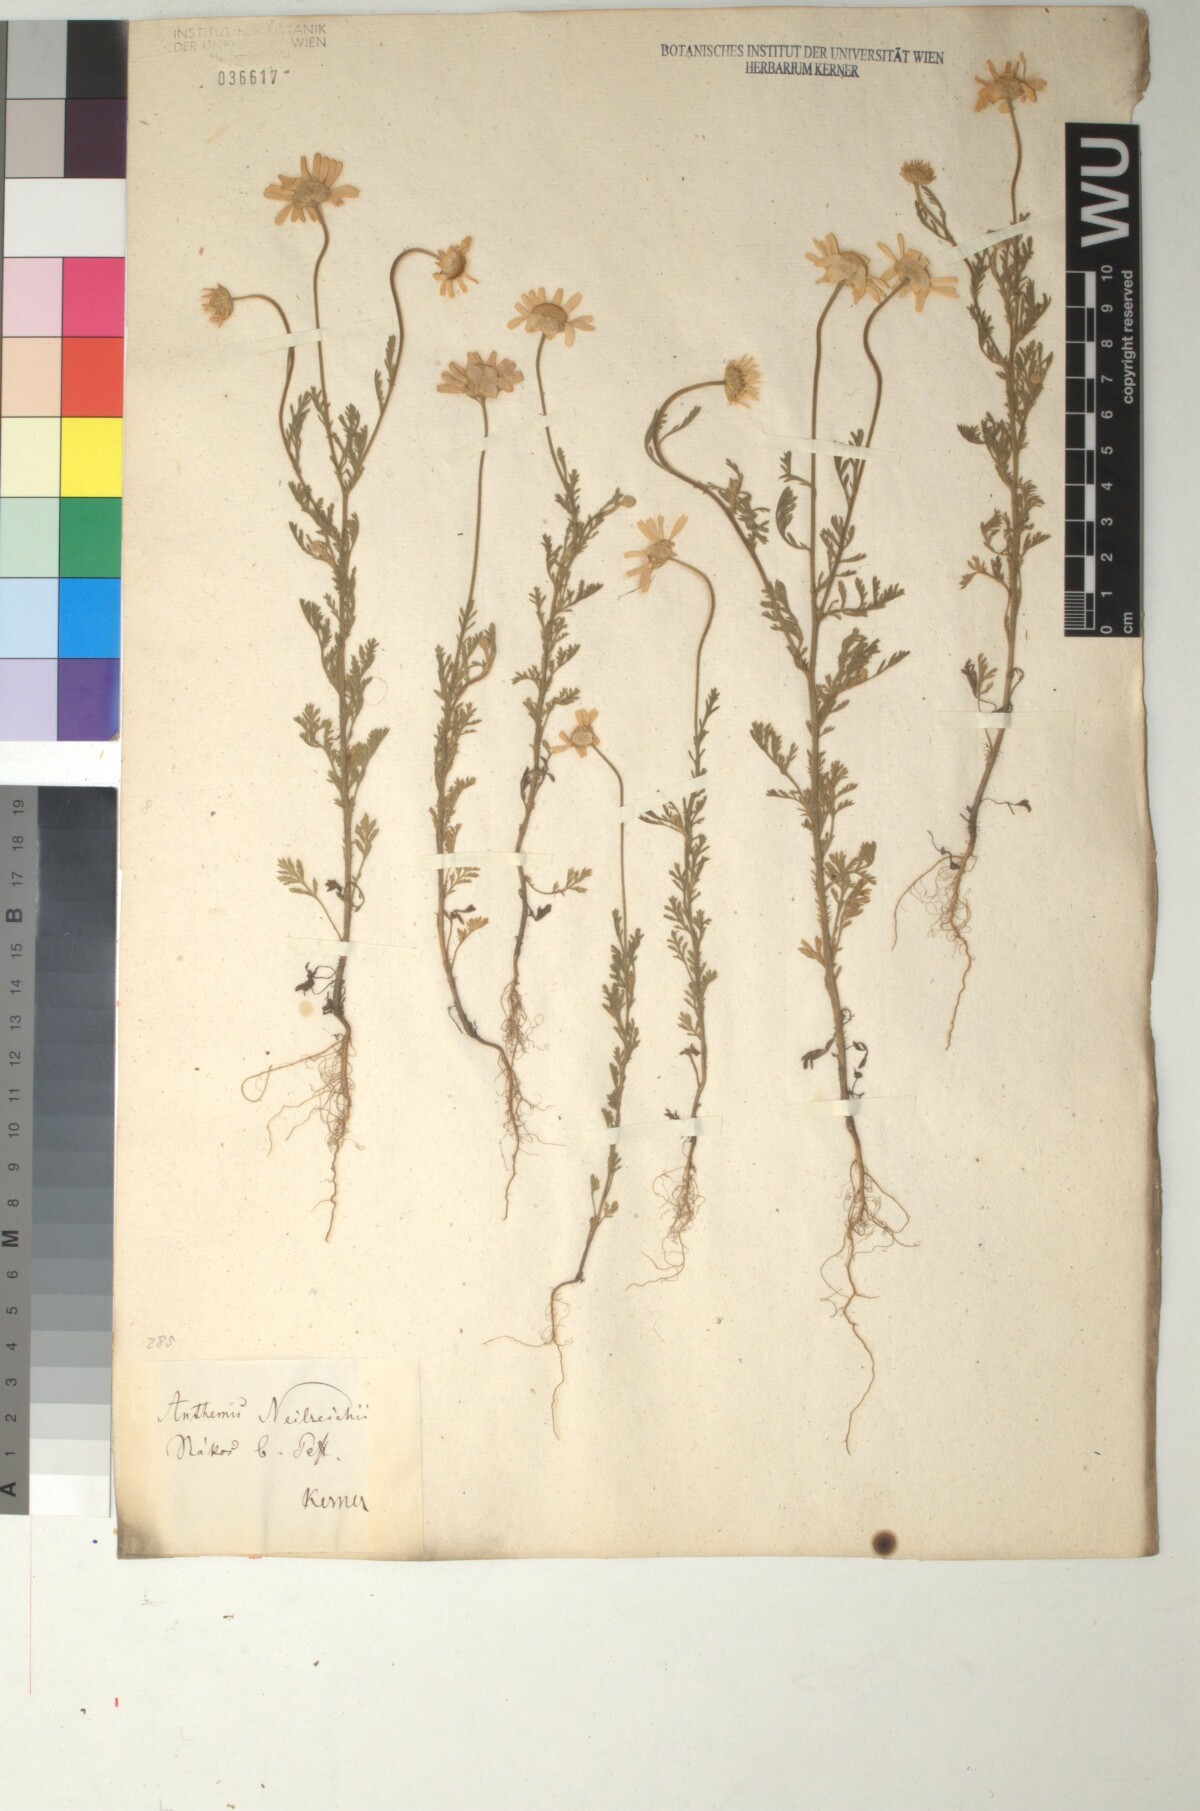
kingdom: Plantae
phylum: Tracheophyta
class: Magnoliopsida
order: Asterales
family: Asteraceae
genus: Anthemis
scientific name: Anthemis ruthenica
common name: Eastern chamomile
